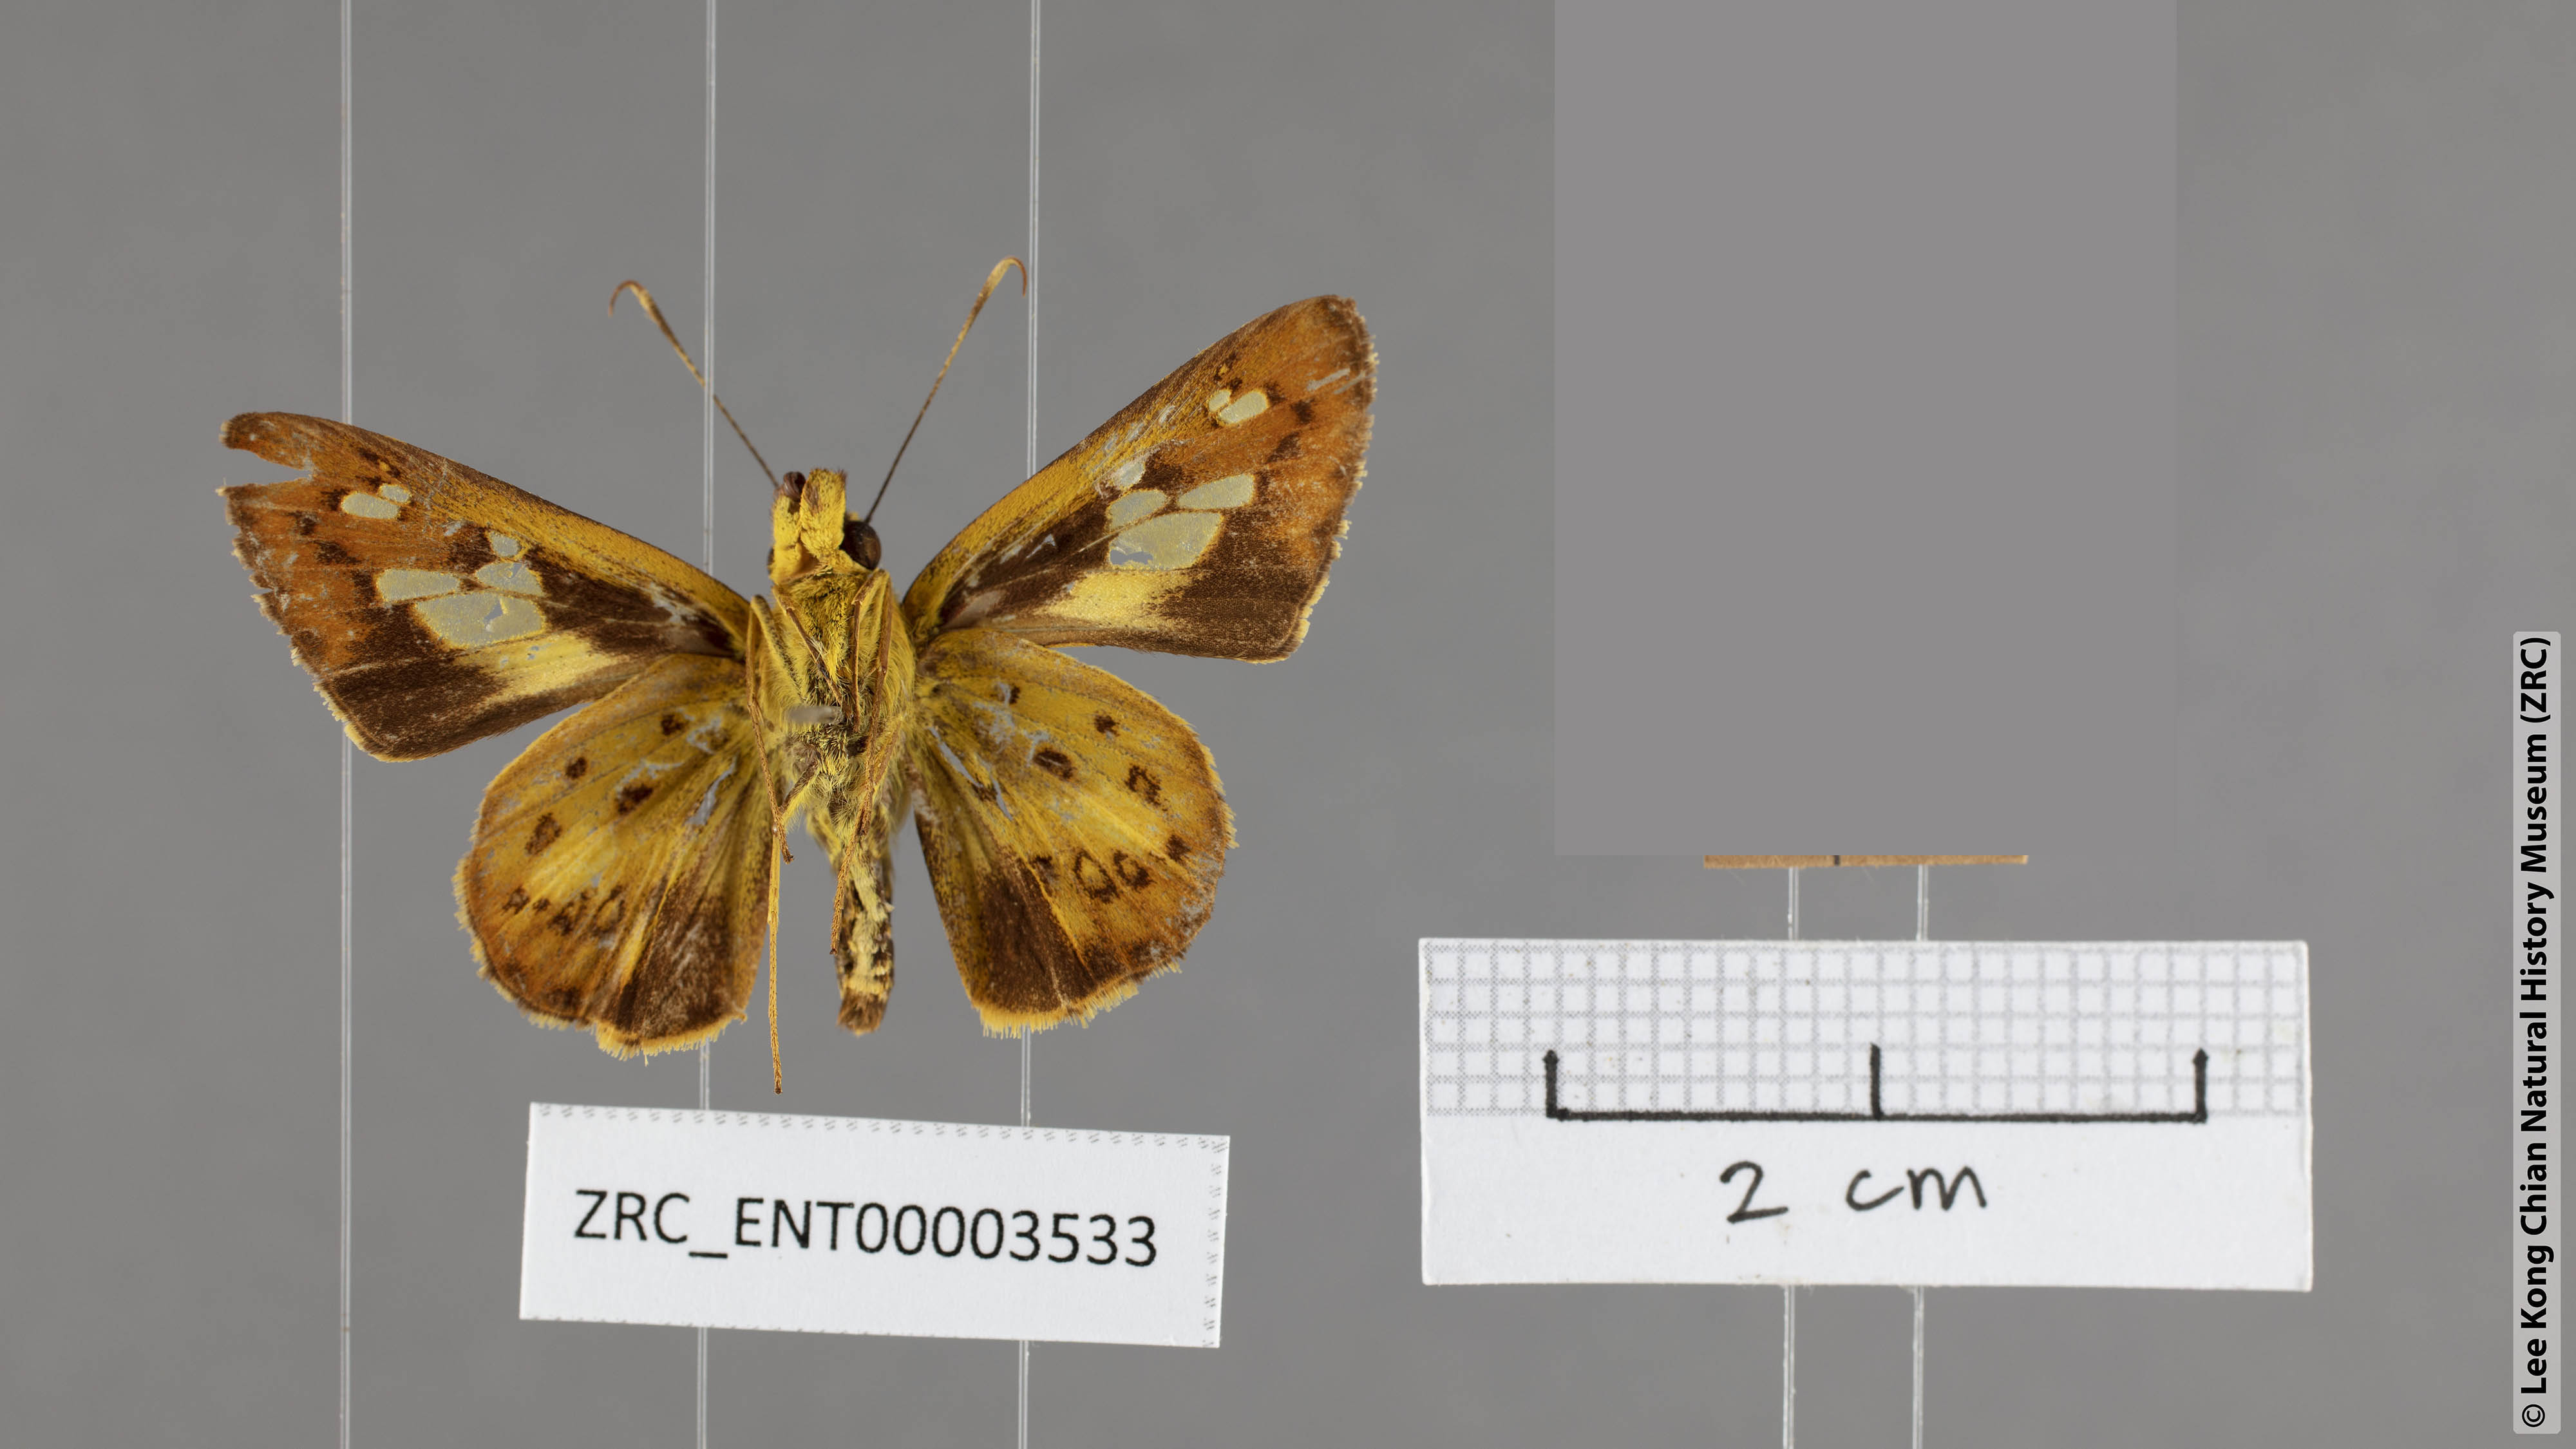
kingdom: Animalia
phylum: Arthropoda
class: Insecta
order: Lepidoptera
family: Hesperiidae
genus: Salanoemia
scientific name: Salanoemia tavoyana
